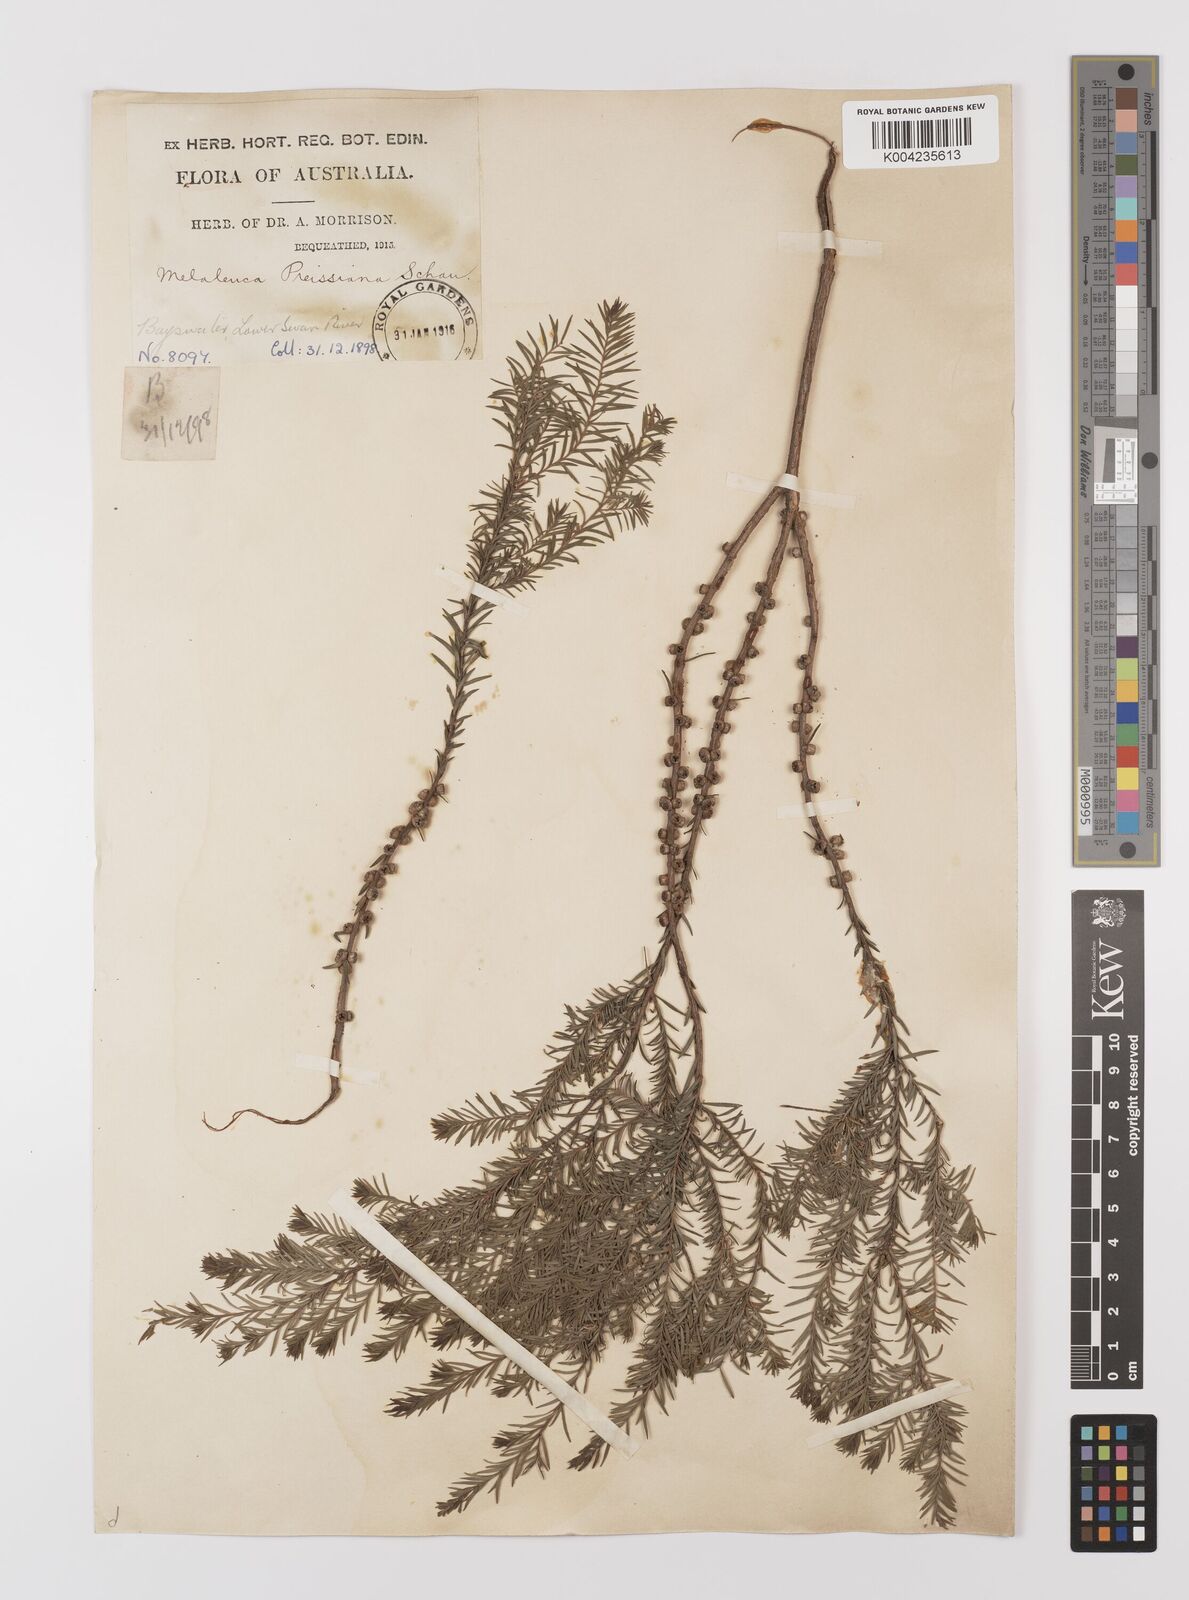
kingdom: Plantae
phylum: Tracheophyta
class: Magnoliopsida
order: Myrtales
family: Myrtaceae
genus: Melaleuca
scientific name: Melaleuca preissiana
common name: Preiss's paperbark
